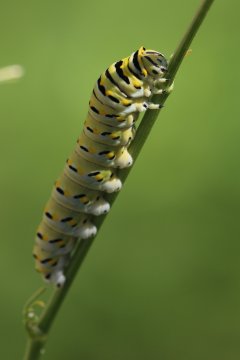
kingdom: Animalia
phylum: Arthropoda
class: Insecta
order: Lepidoptera
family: Papilionidae
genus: Papilio
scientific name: Papilio polyxenes
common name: Black Swallowtail
